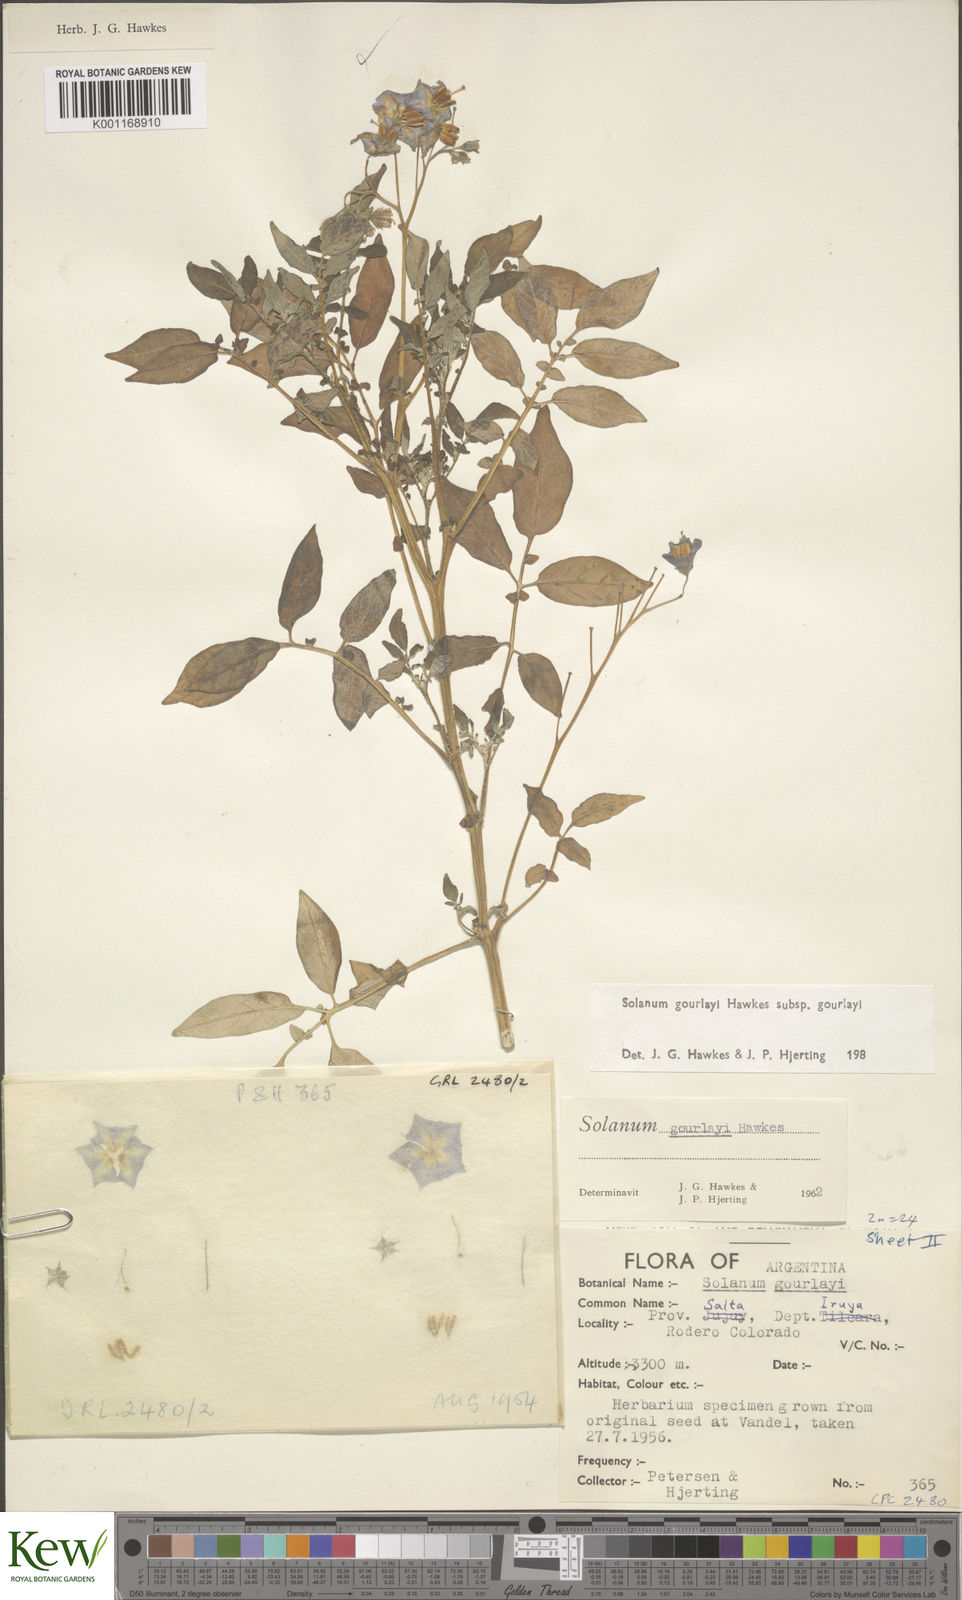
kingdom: Plantae
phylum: Tracheophyta
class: Magnoliopsida
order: Solanales
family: Solanaceae
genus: Solanum
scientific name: Solanum brevicaule
